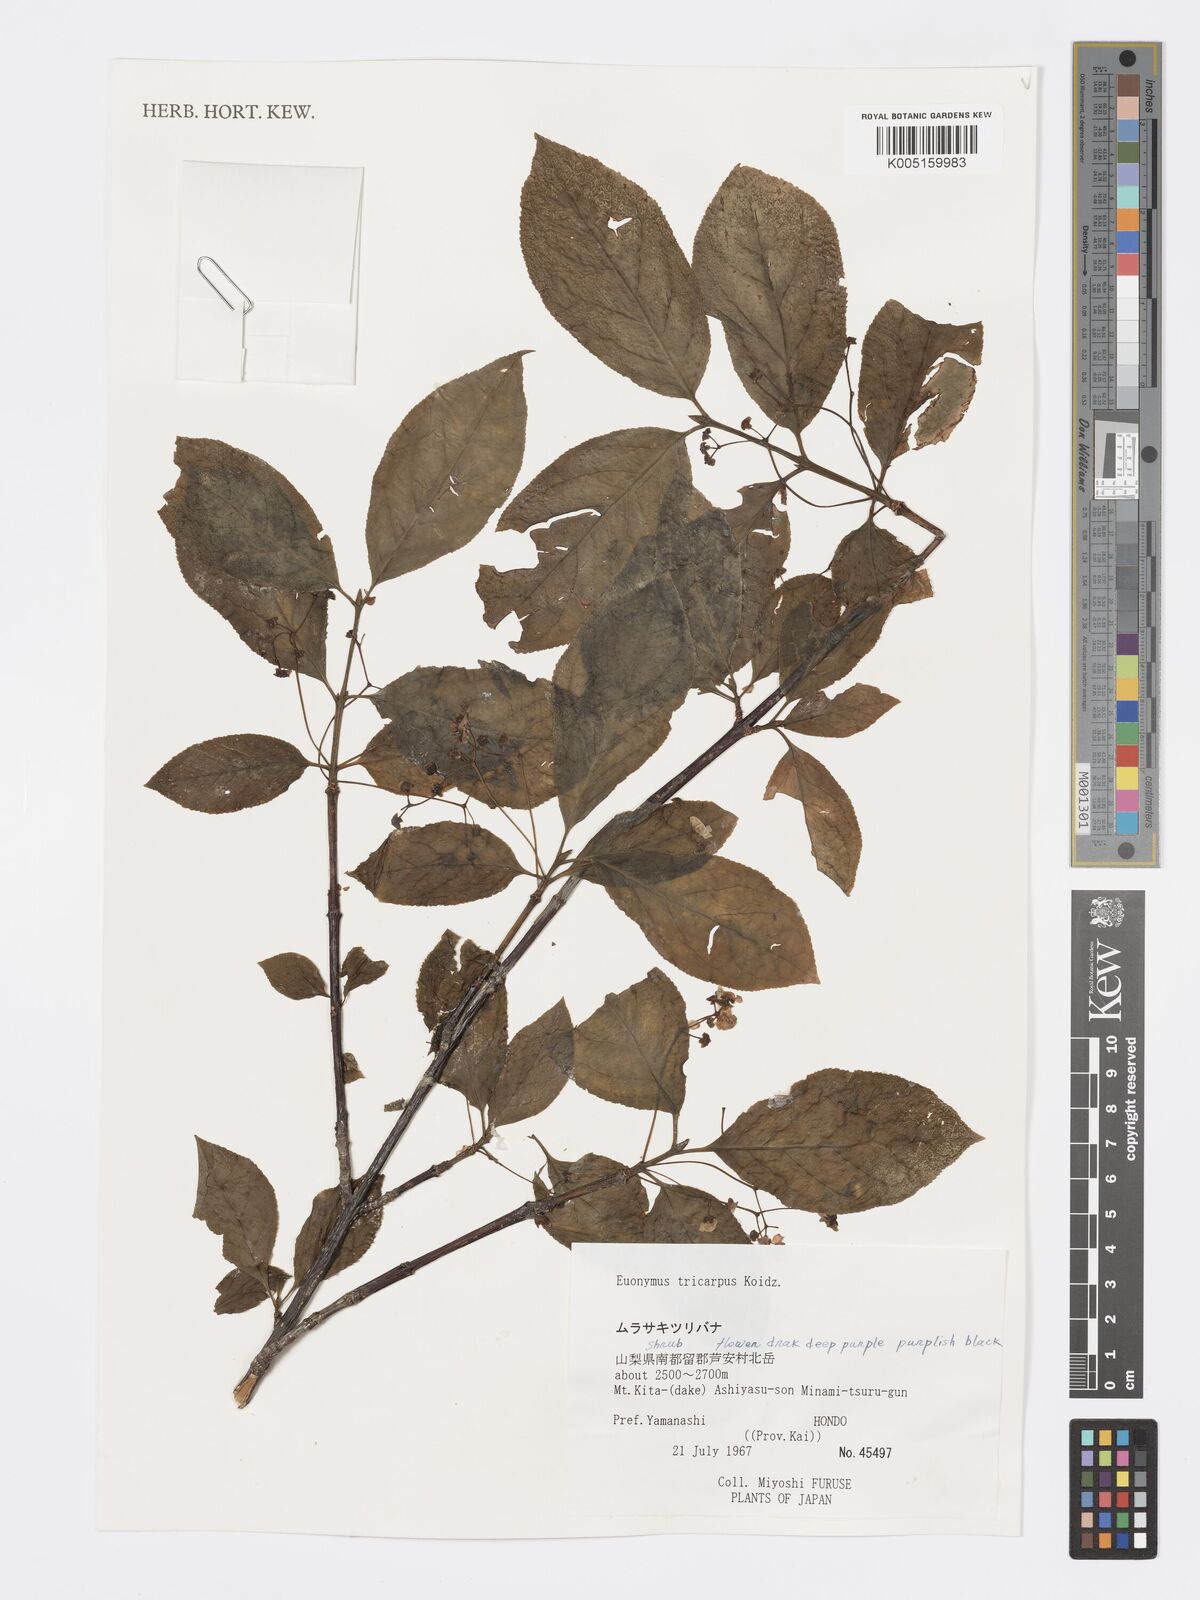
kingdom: Plantae
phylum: Tracheophyta
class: Magnoliopsida
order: Celastrales
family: Celastraceae
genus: Euonymus
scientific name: Euonymus sachalinensis
